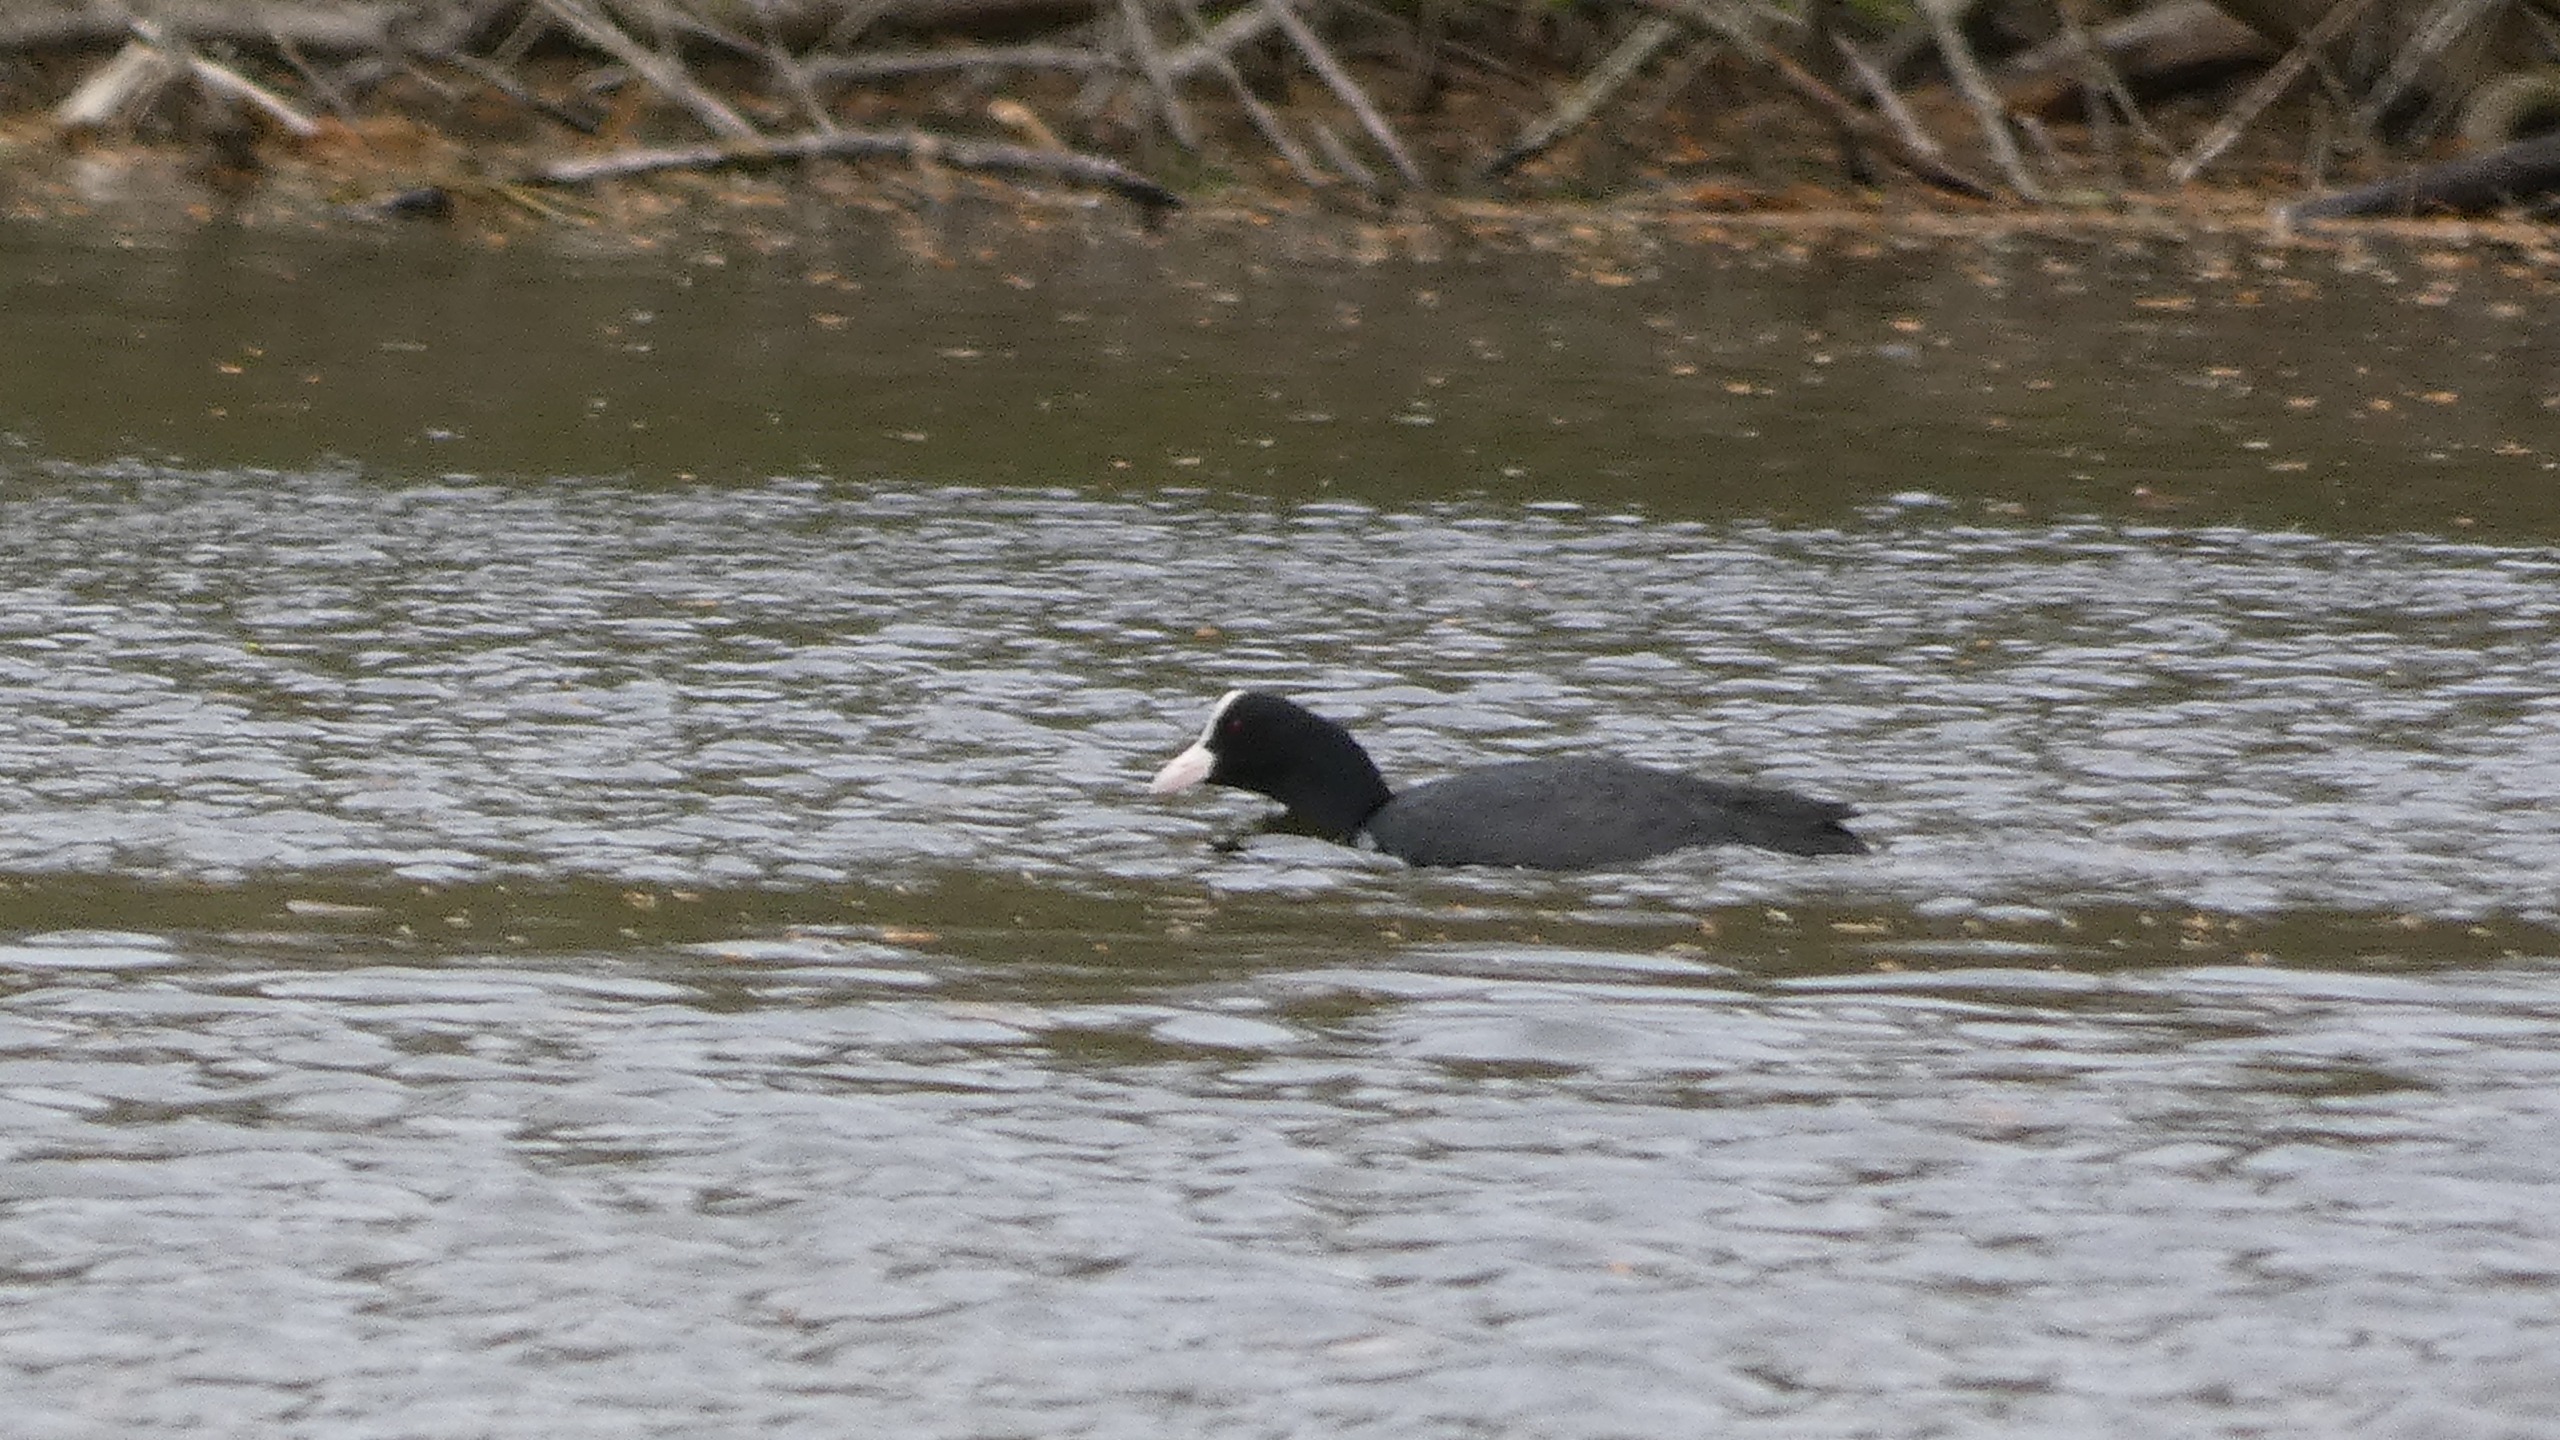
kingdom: Animalia
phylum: Chordata
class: Aves
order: Gruiformes
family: Rallidae
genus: Fulica
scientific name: Fulica atra
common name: Blishøne
